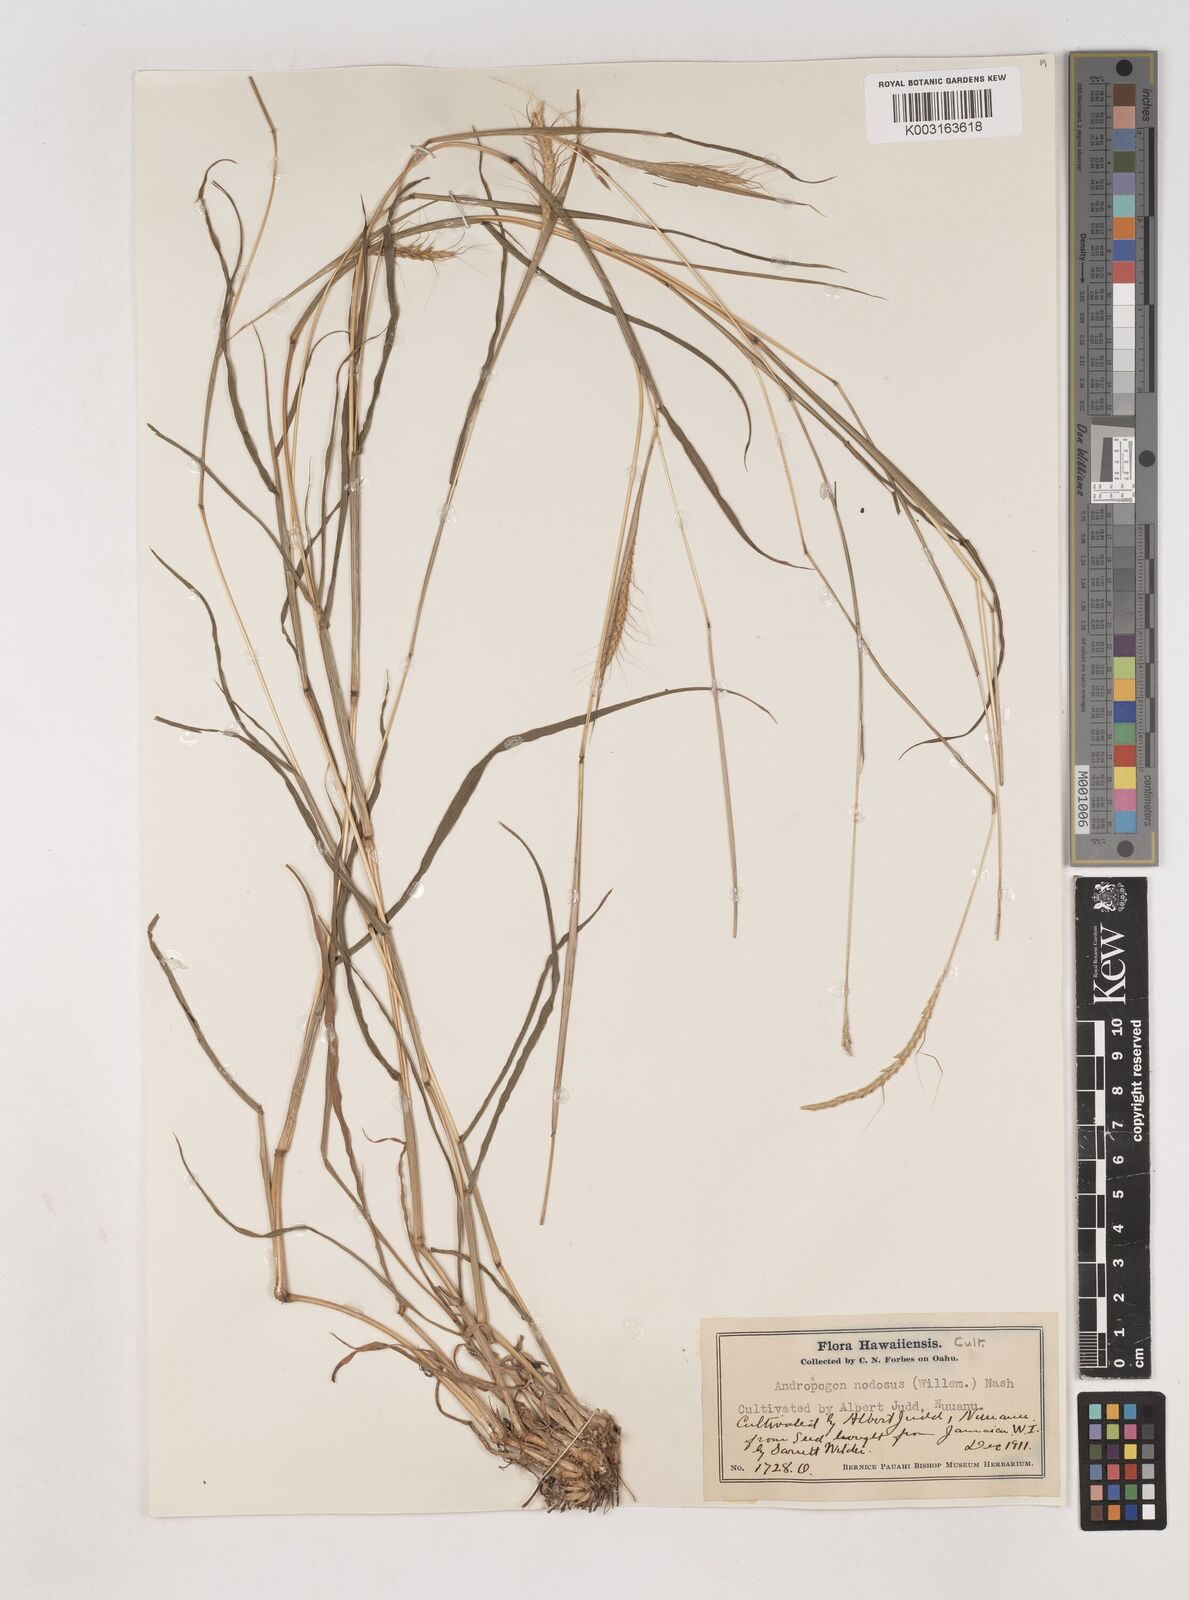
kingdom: Plantae
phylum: Tracheophyta
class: Liliopsida
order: Poales
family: Poaceae
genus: Dichanthium
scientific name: Dichanthium aristatum
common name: Angleton bluestem
